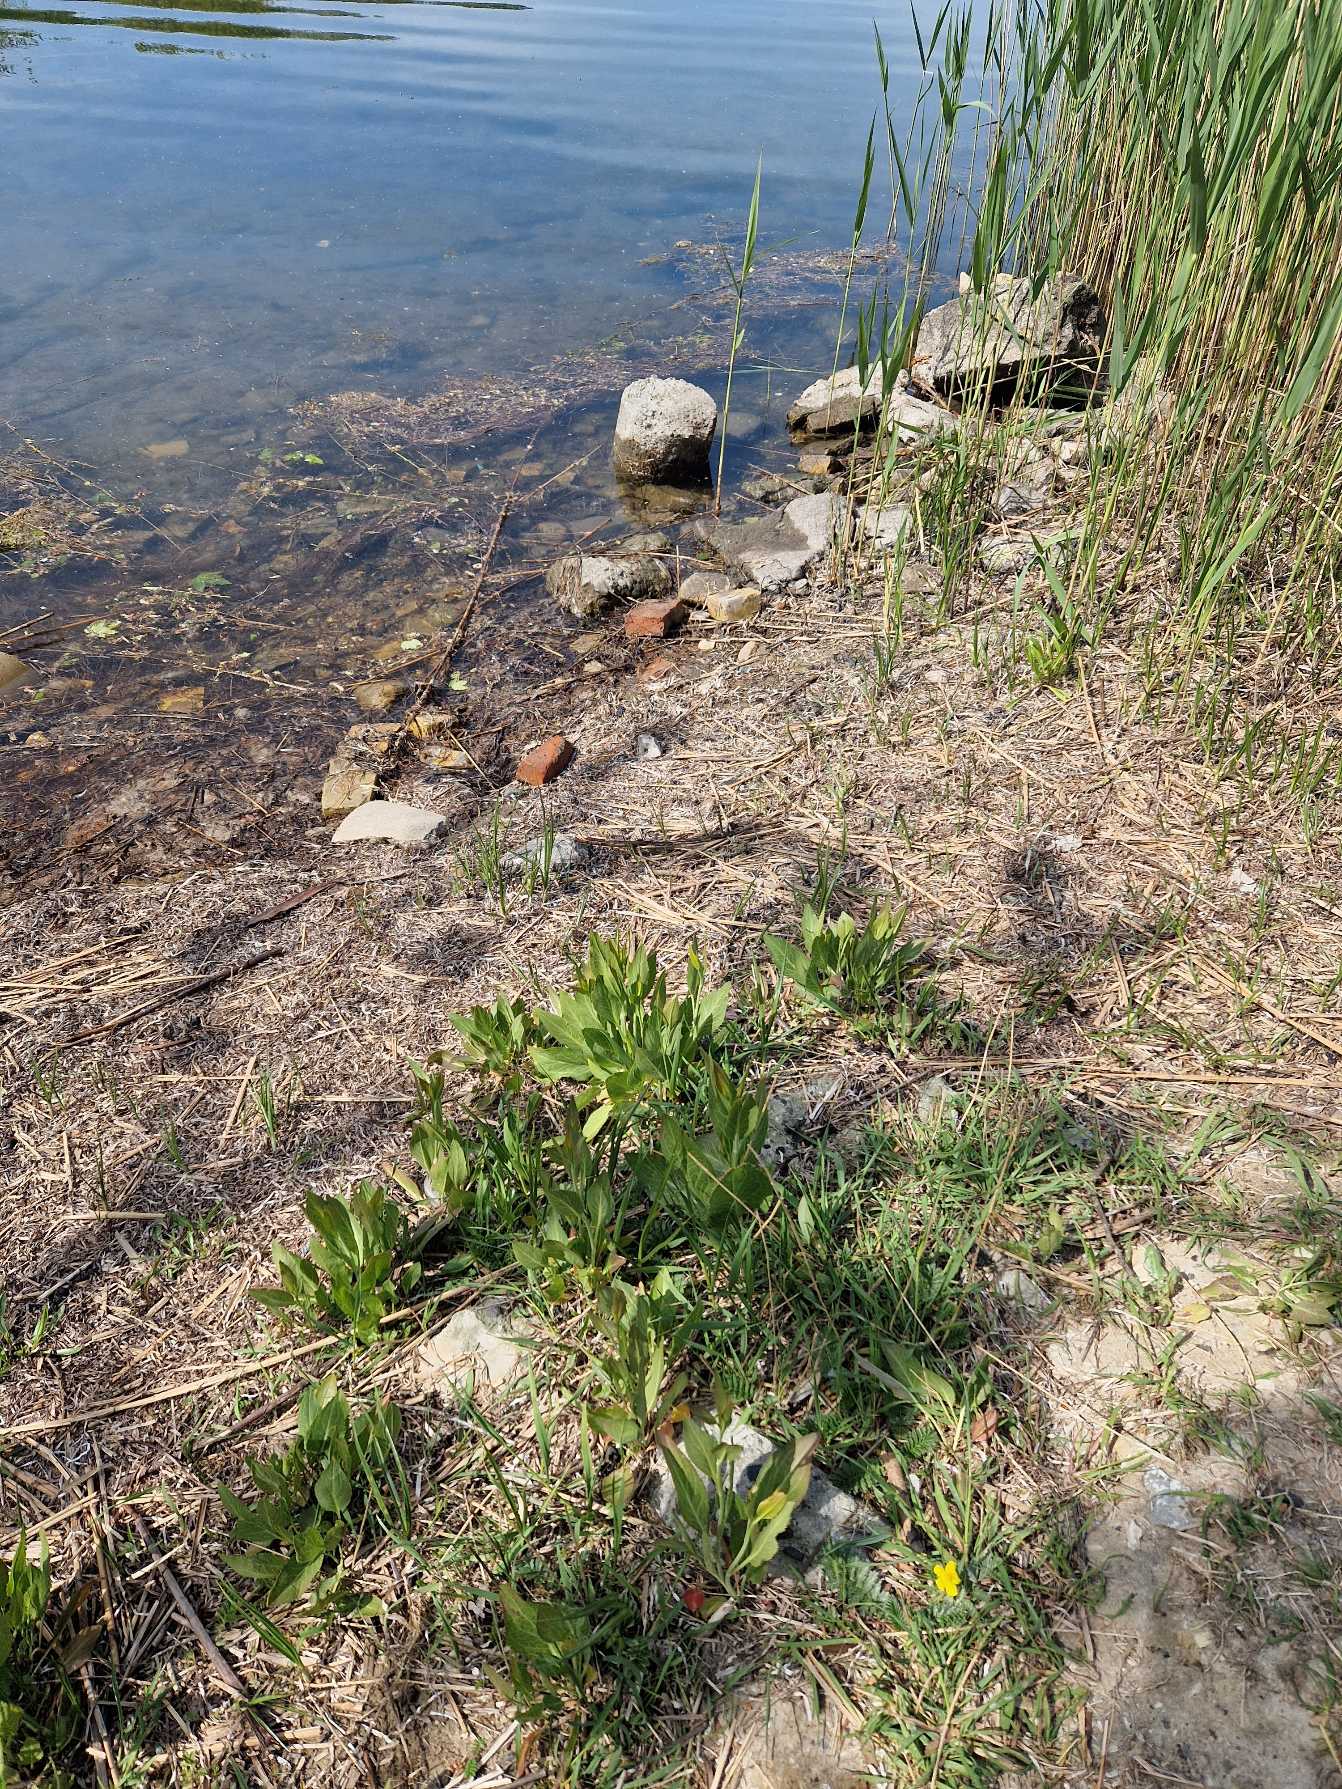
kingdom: Plantae
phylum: Tracheophyta
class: Magnoliopsida
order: Brassicales
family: Brassicaceae
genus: Lepidium
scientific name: Lepidium latifolium
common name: Strand-karse
